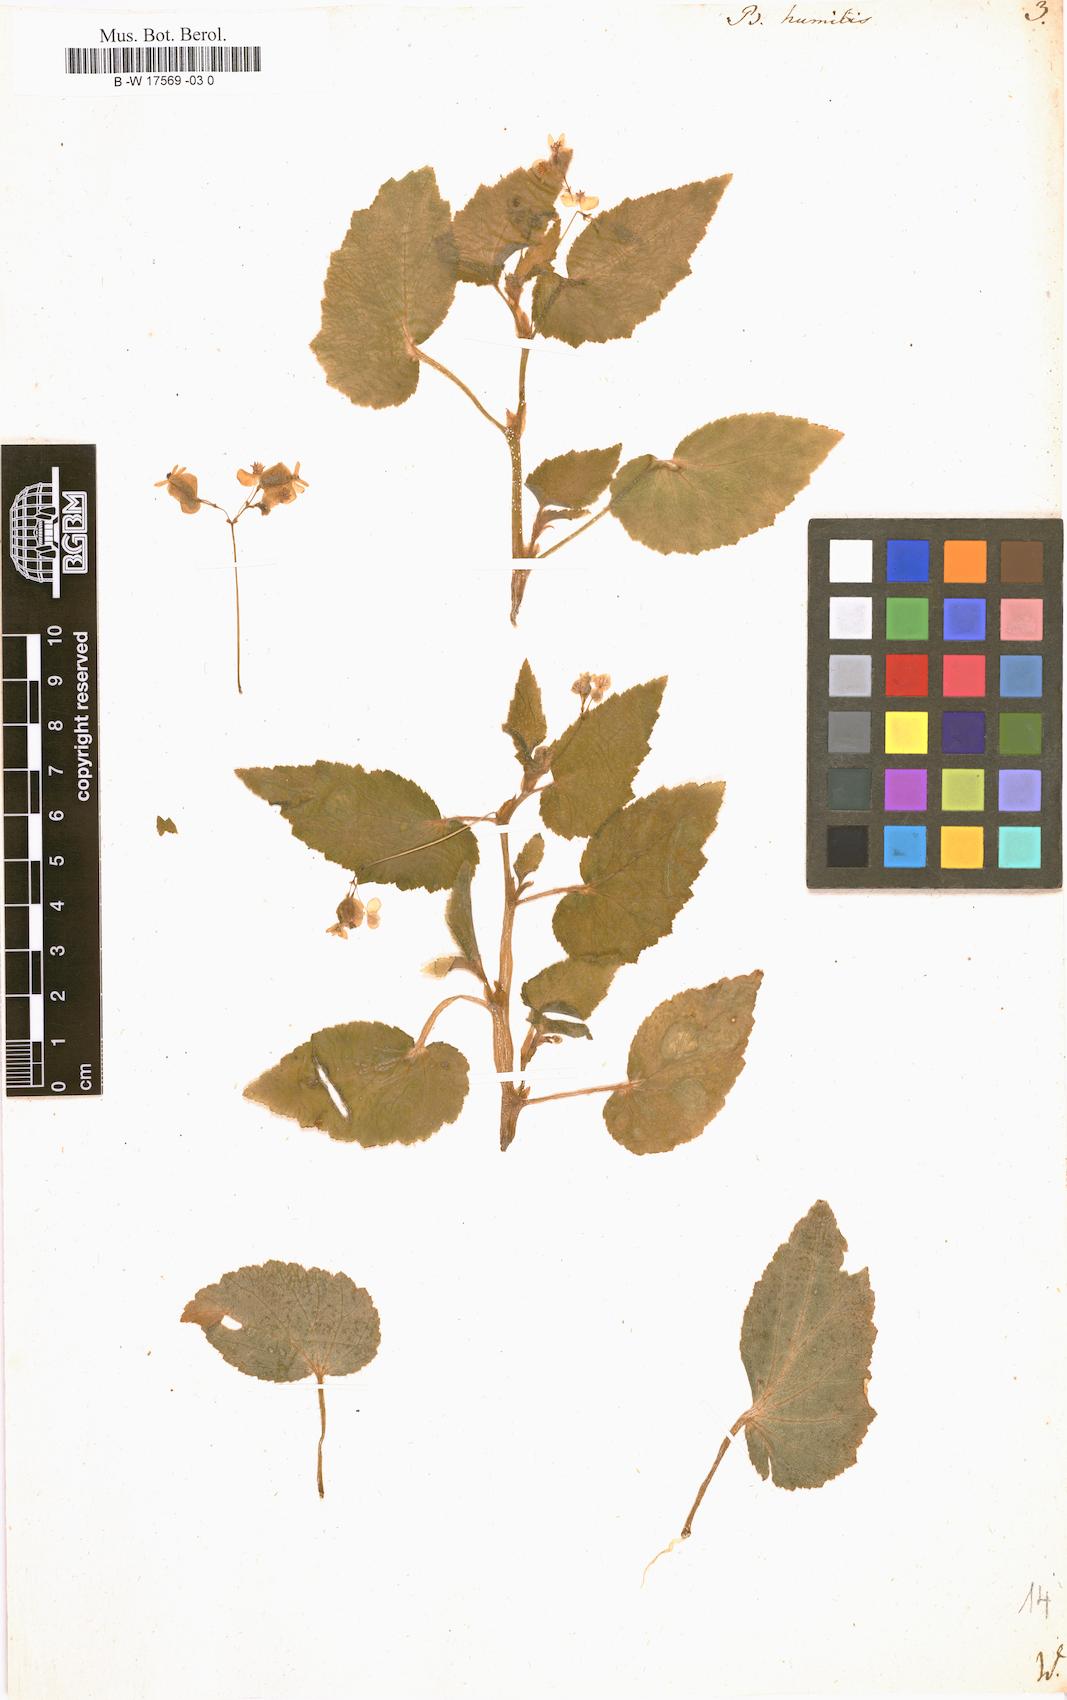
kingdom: Plantae
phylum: Tracheophyta
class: Magnoliopsida
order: Cucurbitales
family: Begoniaceae
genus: Begonia
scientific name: Begonia semiovata
